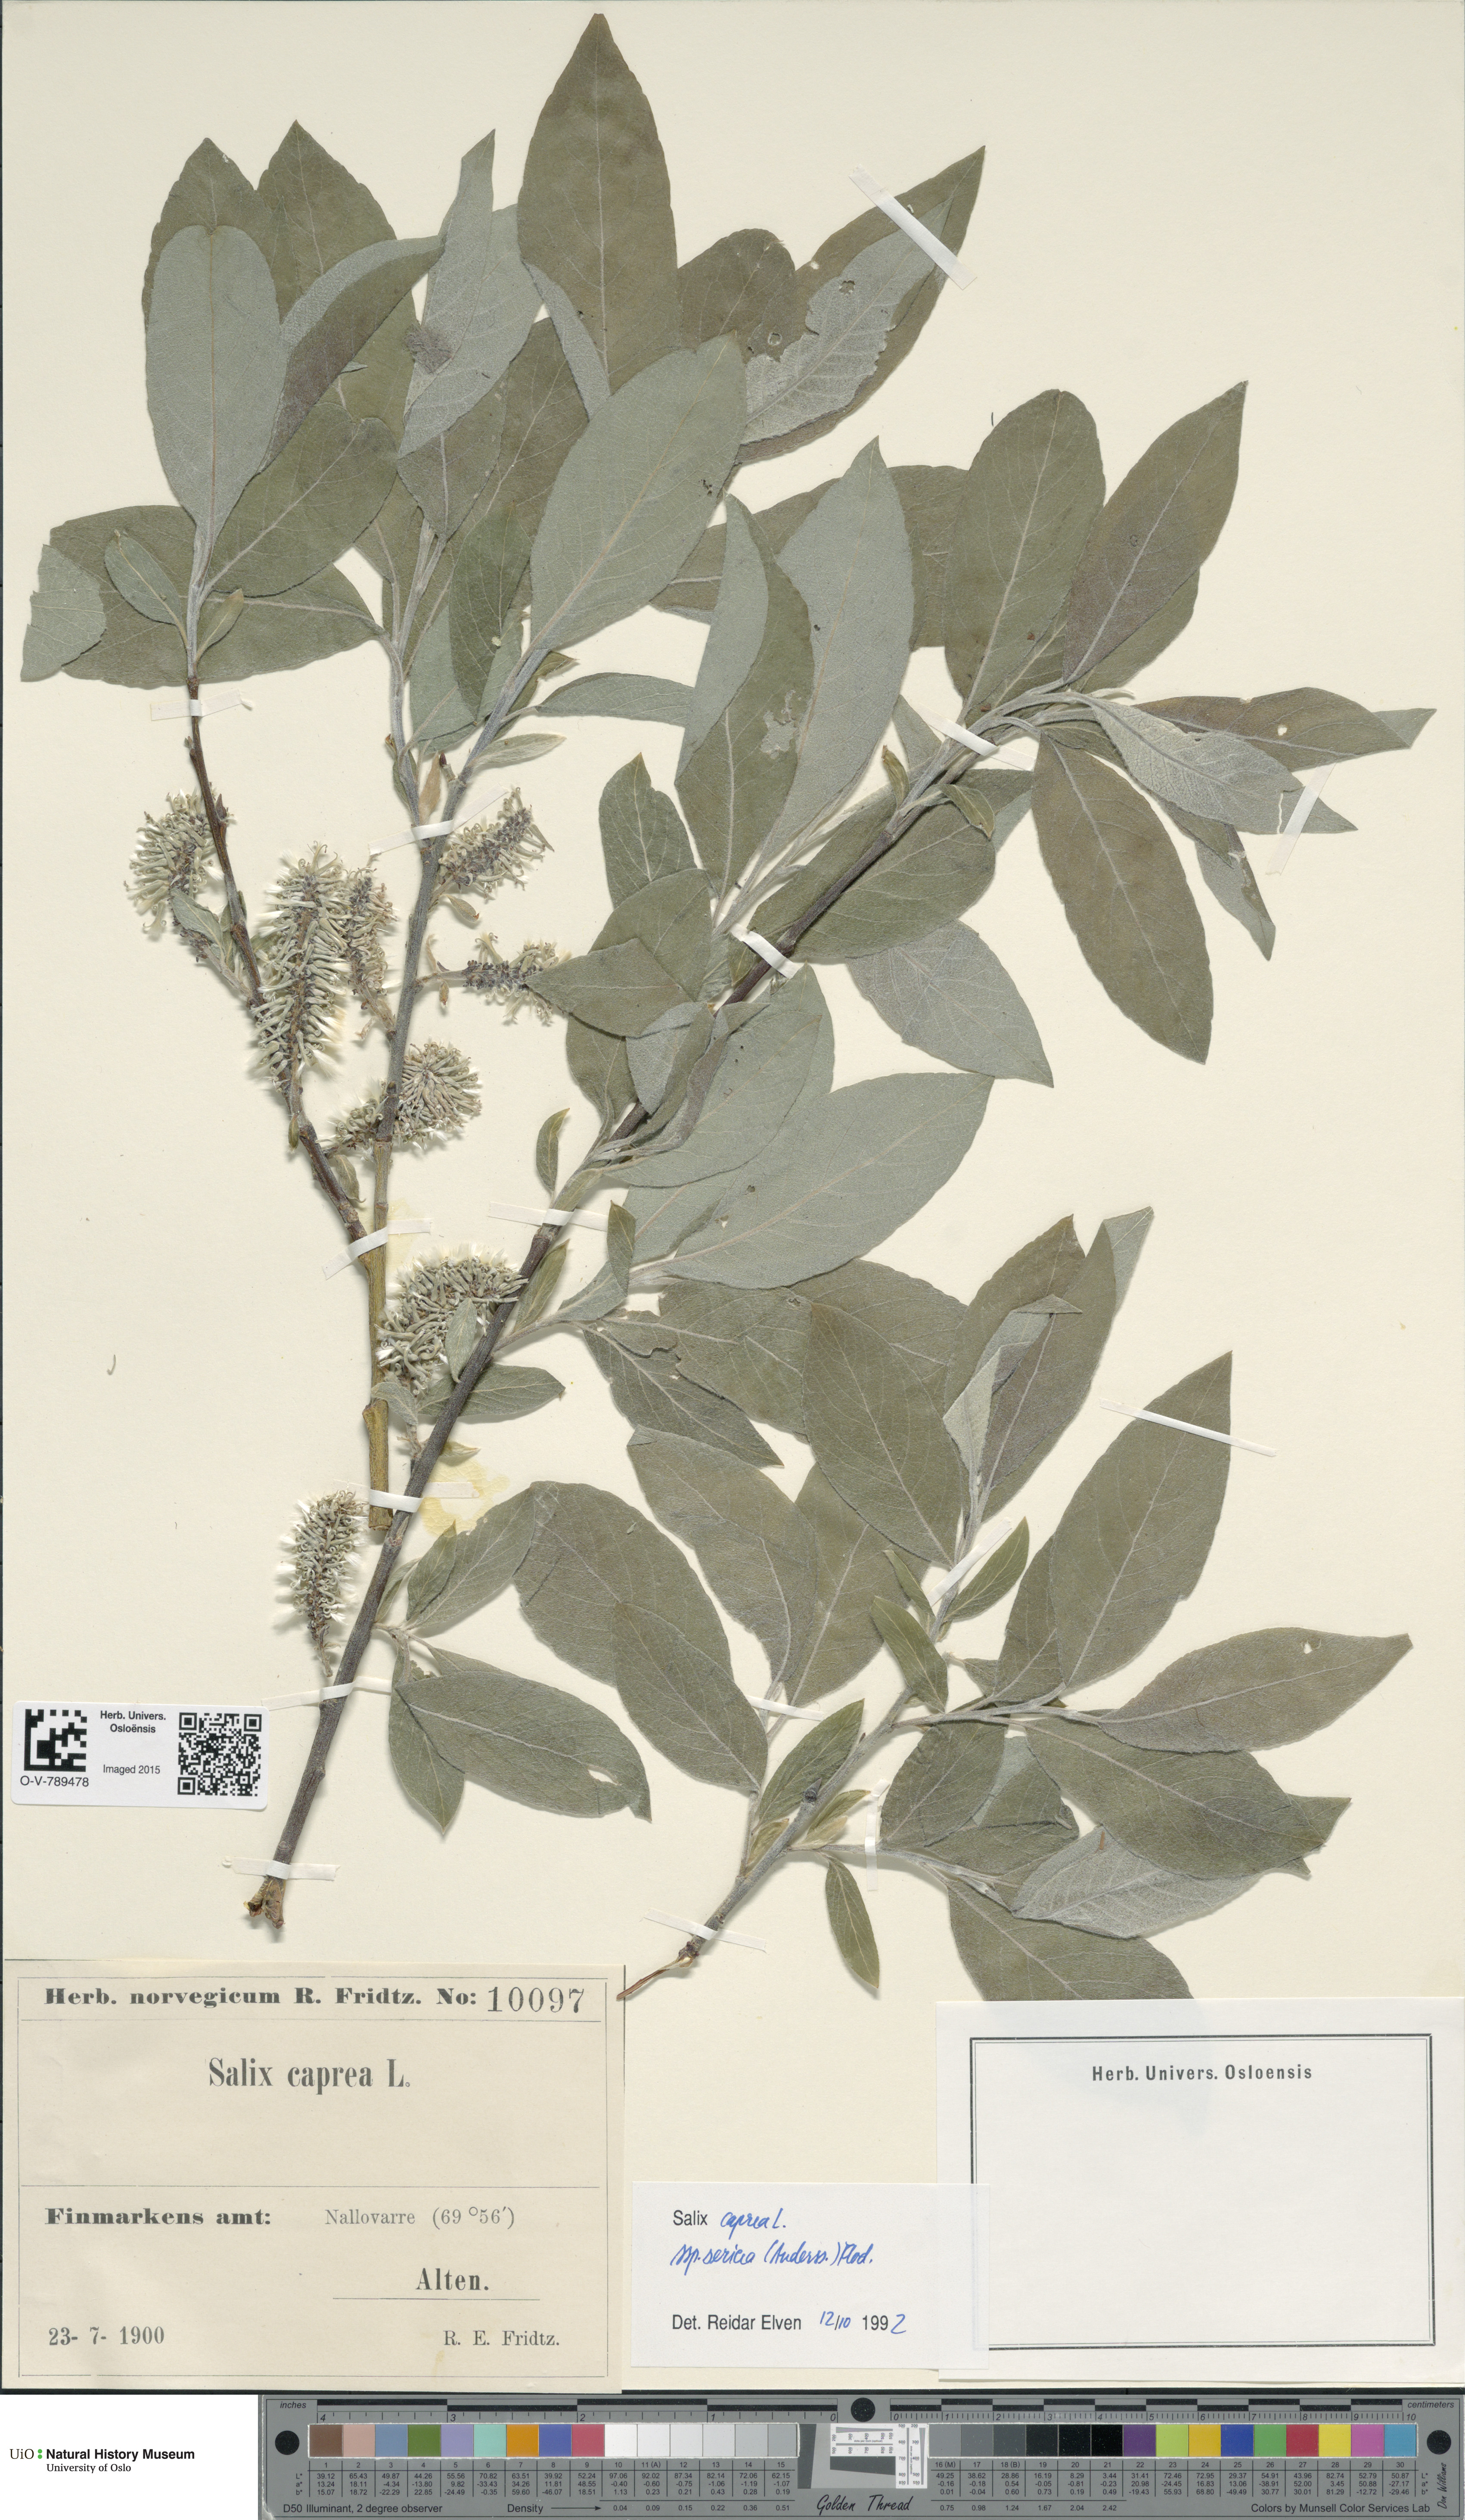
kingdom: Plantae
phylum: Tracheophyta
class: Magnoliopsida
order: Malpighiales
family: Salicaceae
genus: Salix
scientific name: Salix caprea
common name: Goat willow
